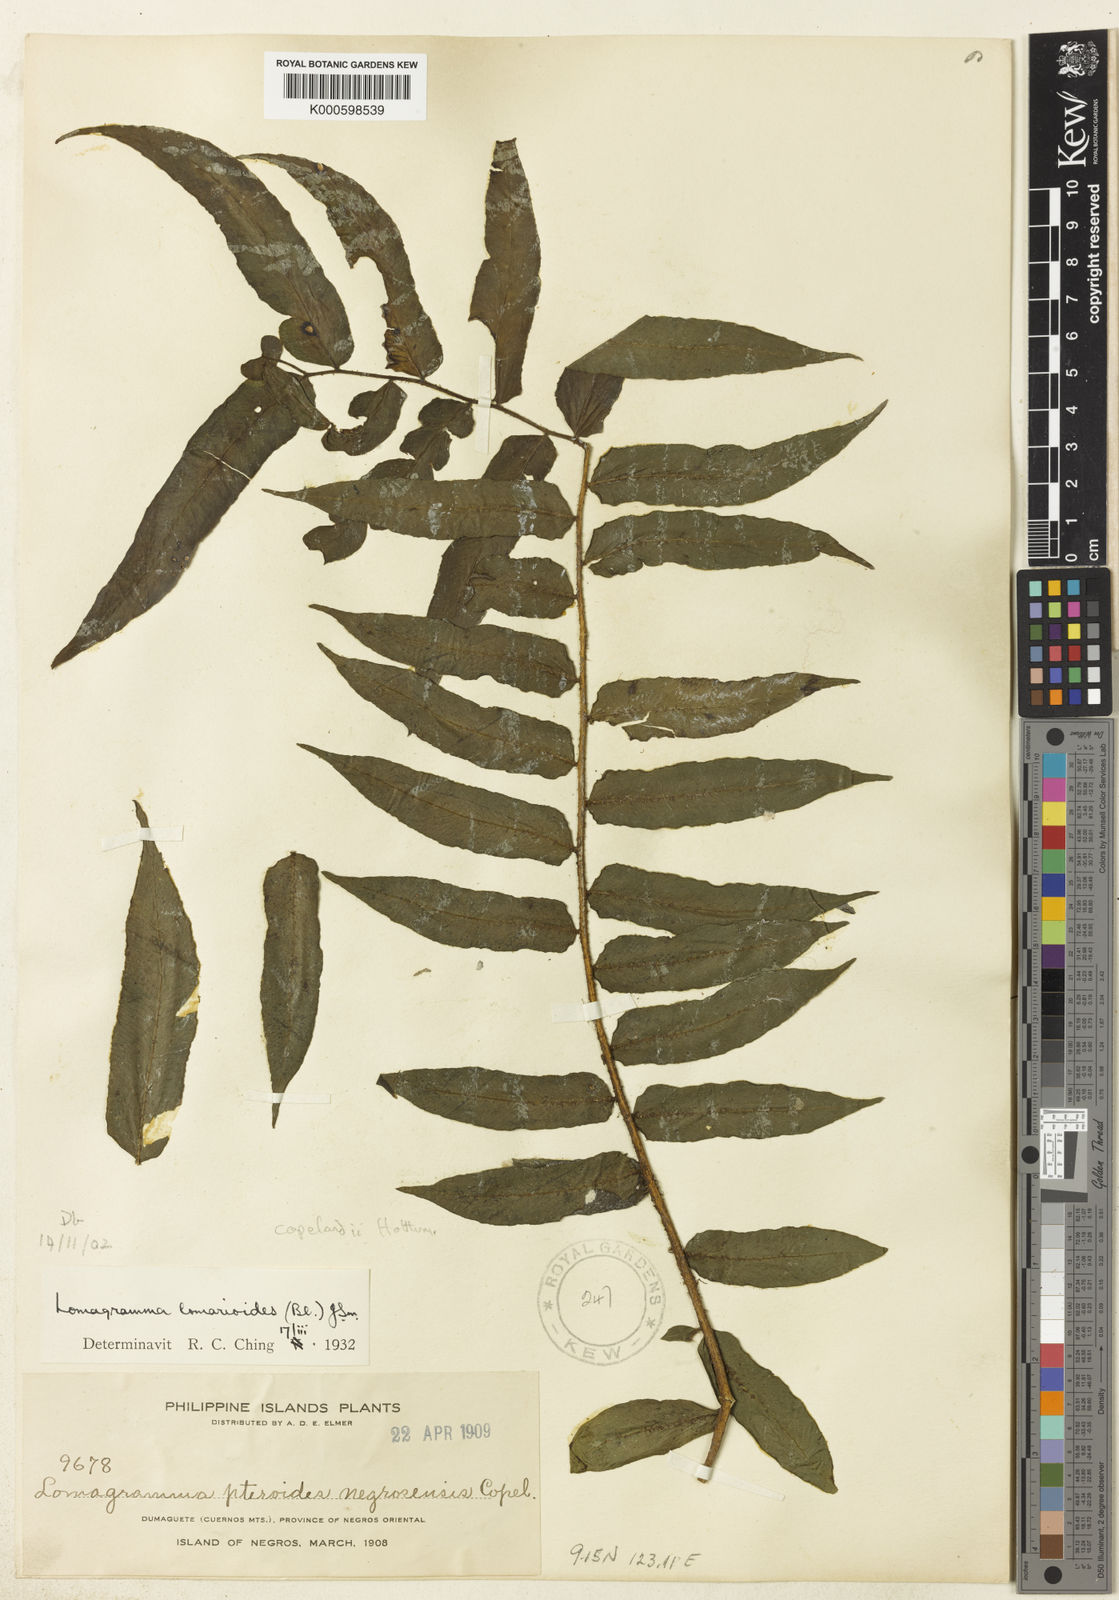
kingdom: Plantae
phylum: Tracheophyta
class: Polypodiopsida
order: Polypodiales
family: Dryopteridaceae
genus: Lomagramma
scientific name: Lomagramma copelandii
